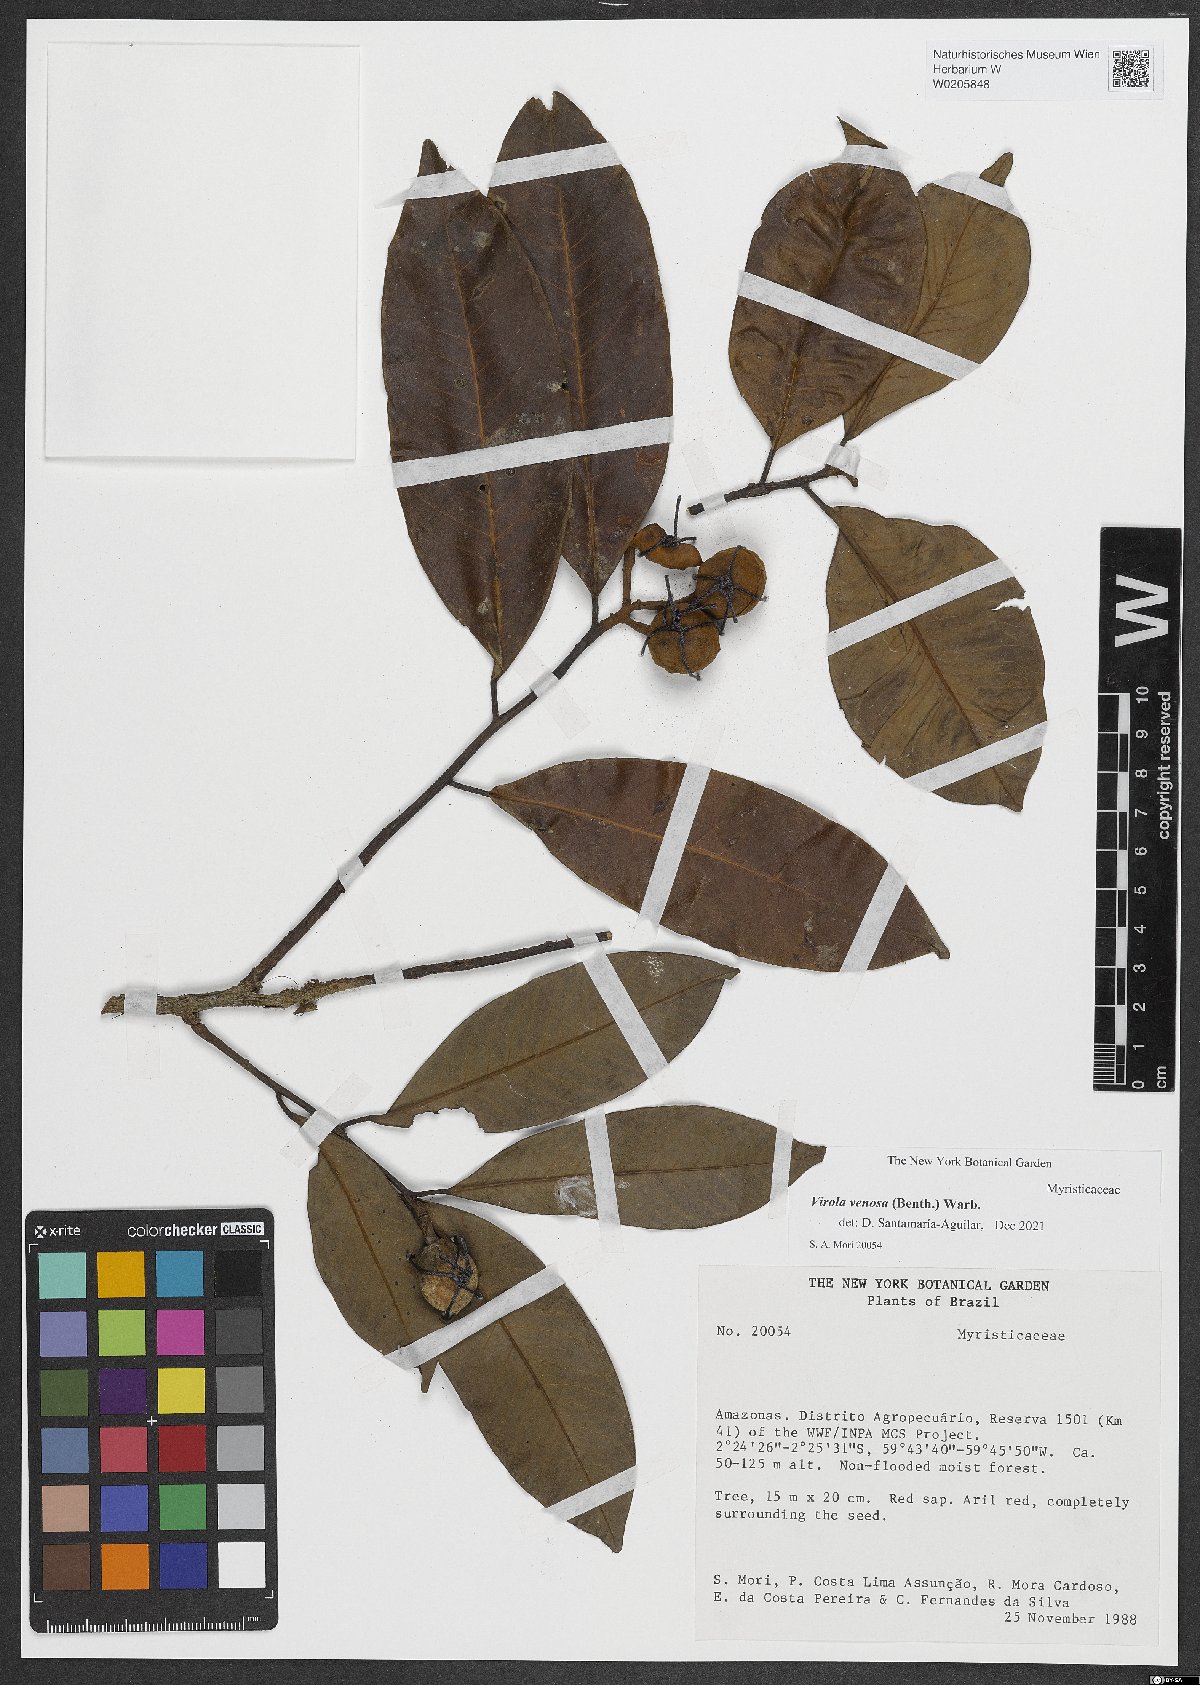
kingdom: Plantae
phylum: Tracheophyta
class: Magnoliopsida
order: Magnoliales
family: Myristicaceae
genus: Virola
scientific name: Virola venosa
